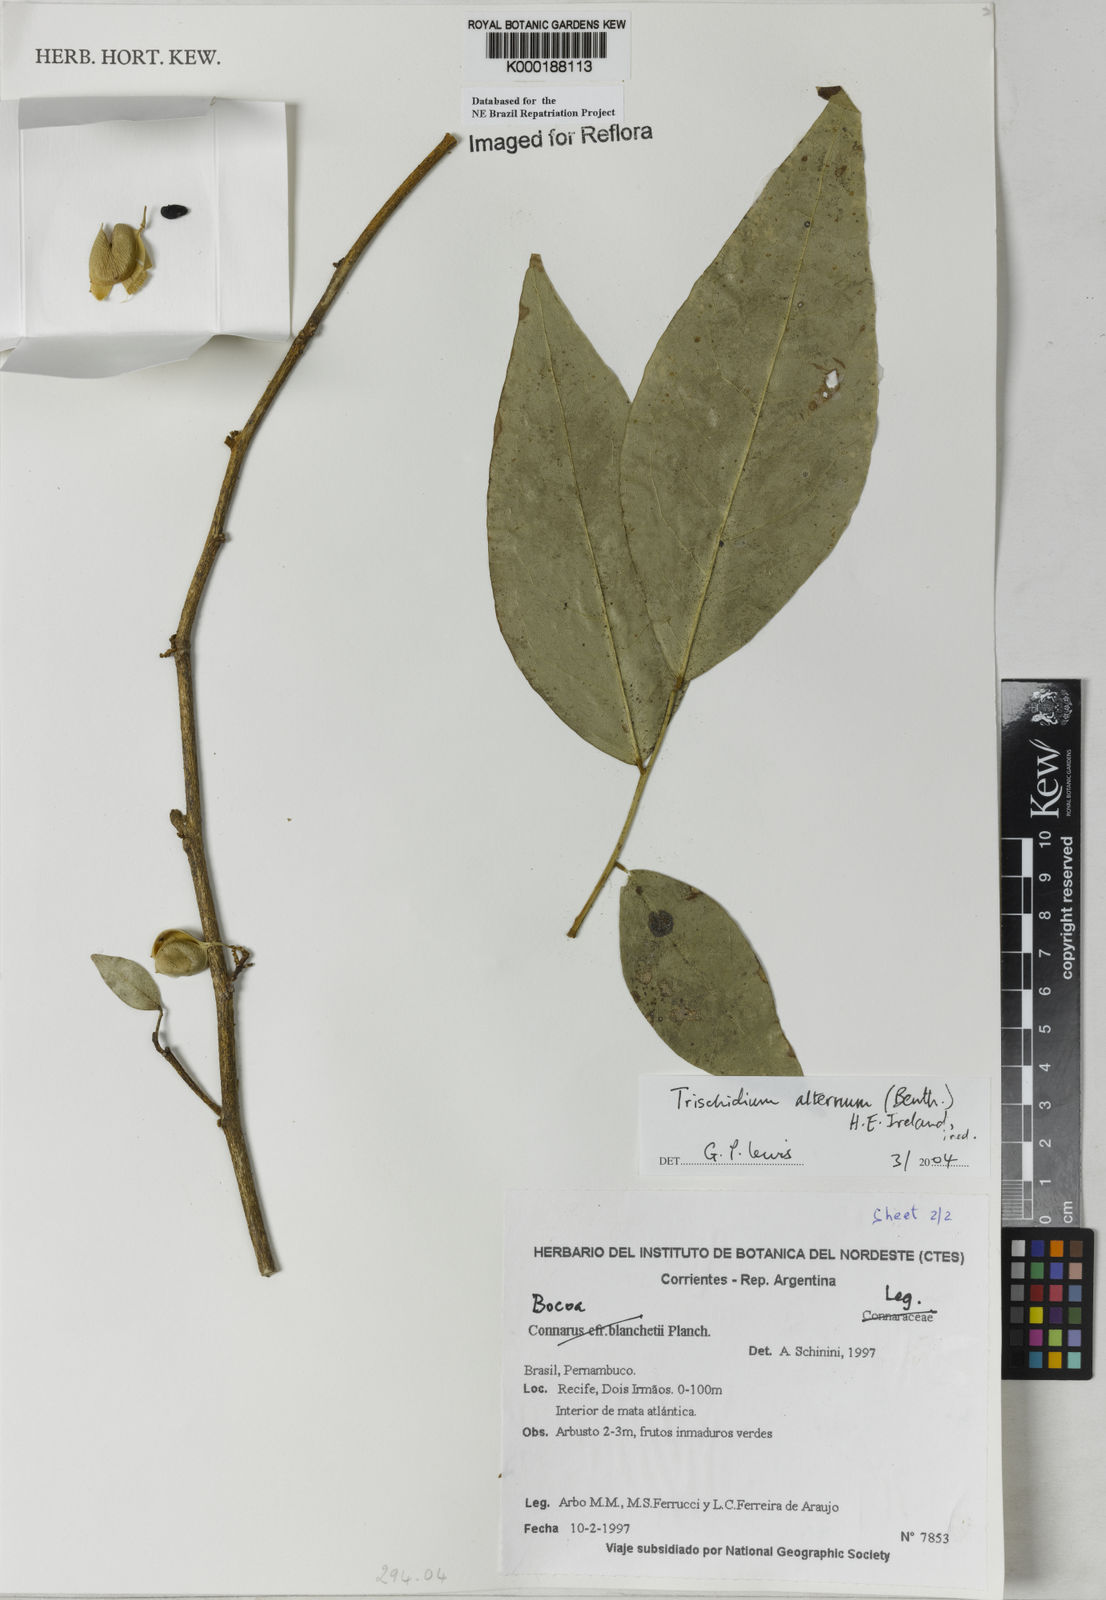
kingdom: Plantae
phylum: Tracheophyta
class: Magnoliopsida
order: Fabales
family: Fabaceae
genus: Trischidium
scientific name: Trischidium
